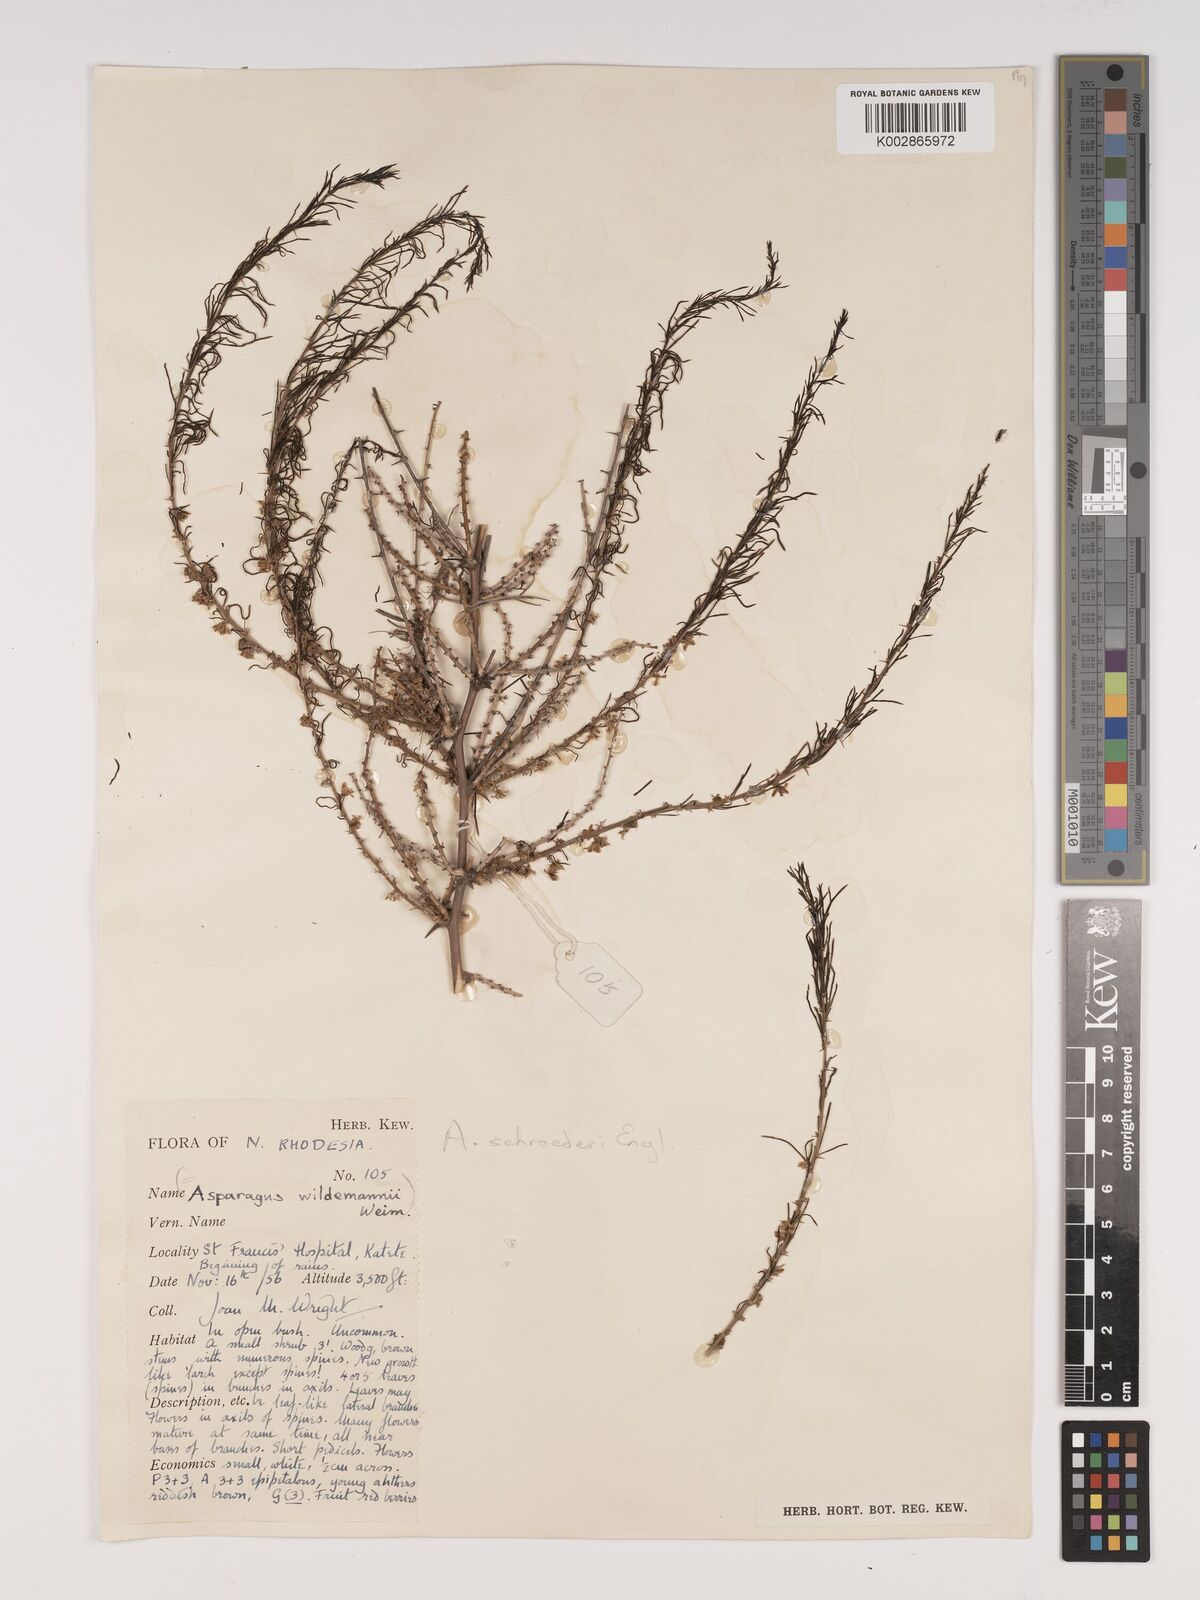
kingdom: Plantae
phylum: Tracheophyta
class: Liliopsida
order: Asparagales
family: Asparagaceae
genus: Asparagus
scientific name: Asparagus schroederi
